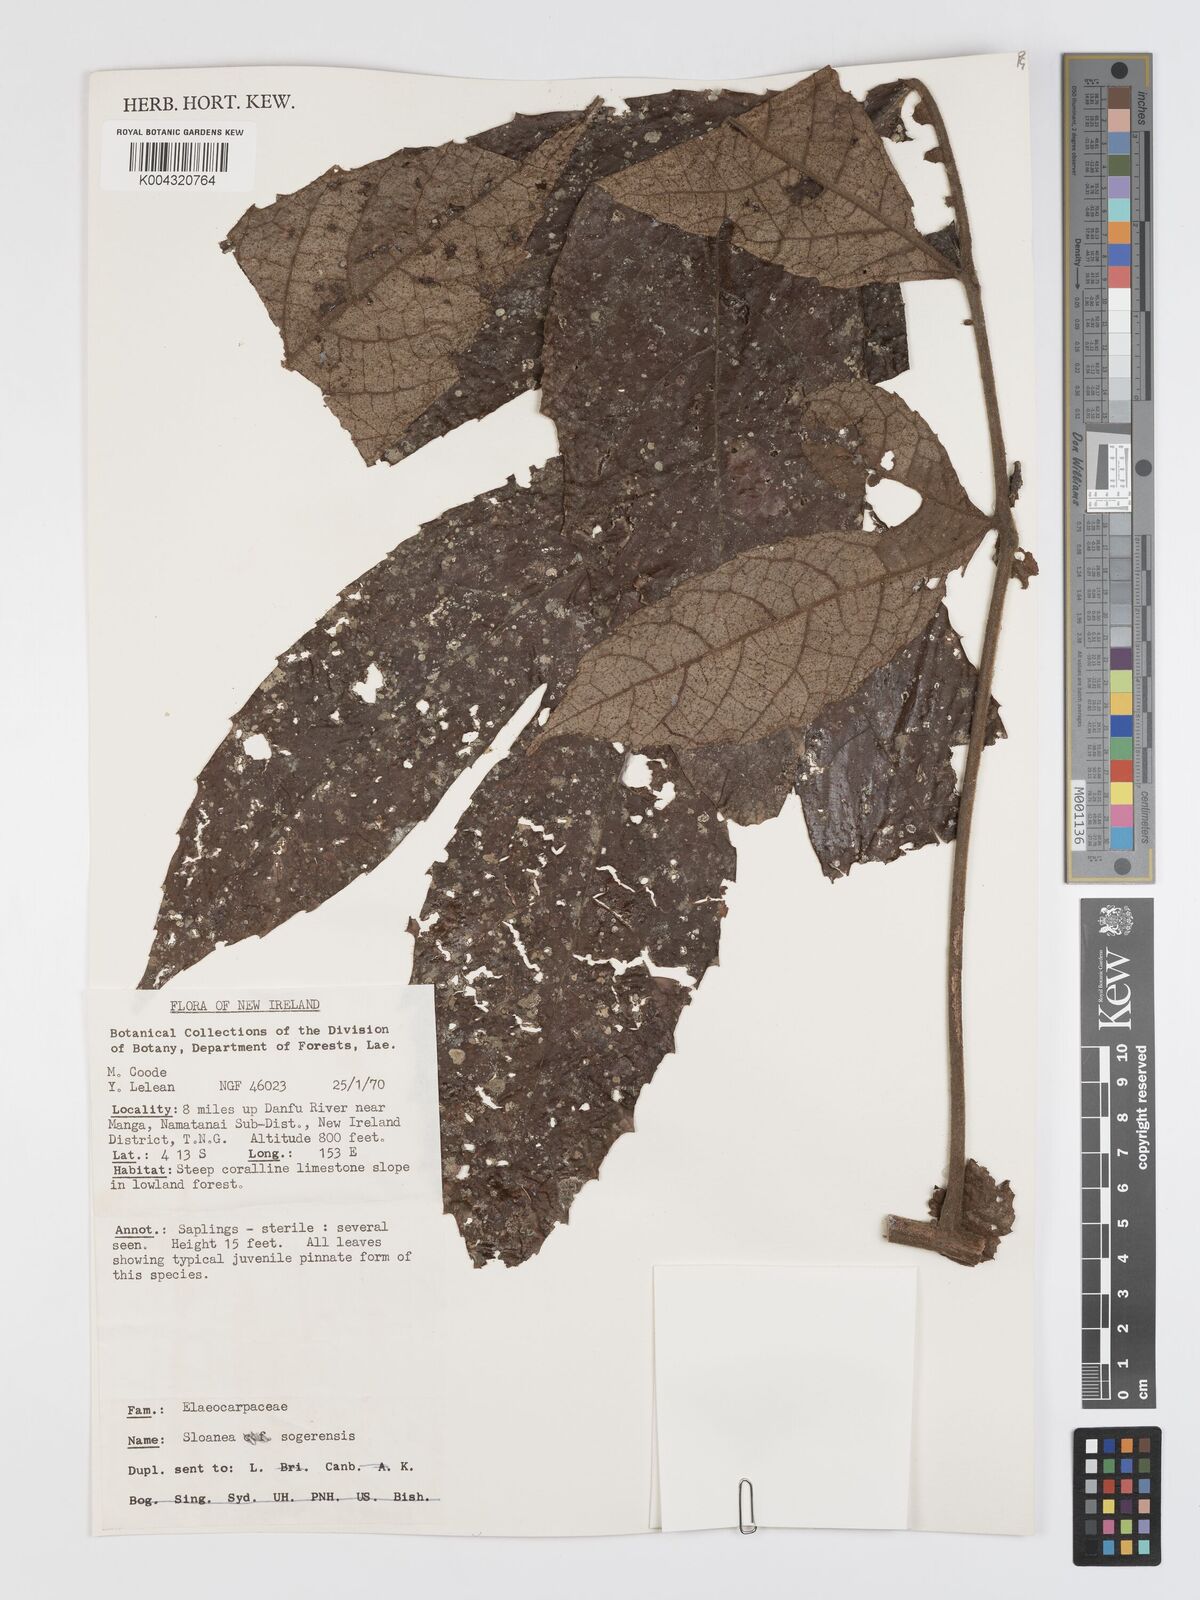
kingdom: Plantae
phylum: Tracheophyta
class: Magnoliopsida
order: Oxalidales
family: Elaeocarpaceae
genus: Sloanea
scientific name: Sloanea sogerensis
